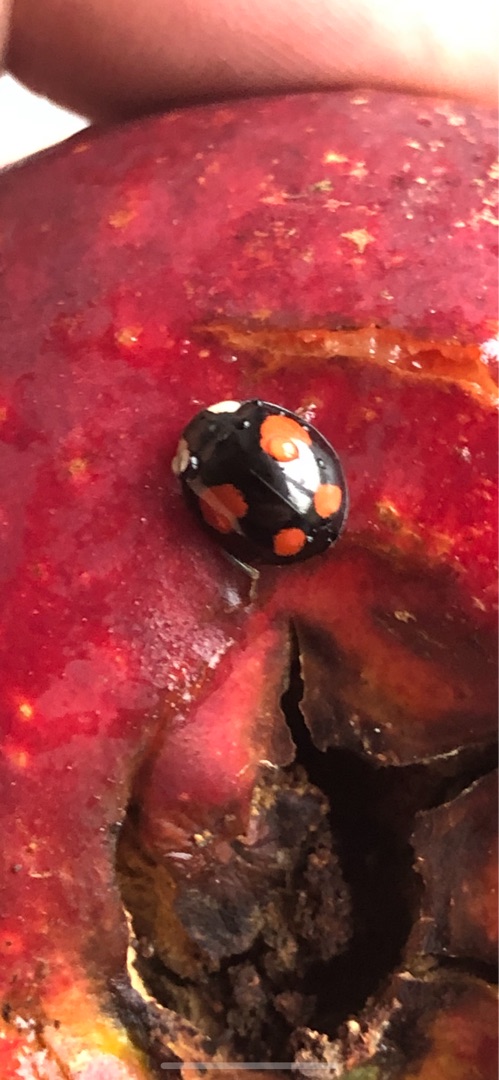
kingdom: Animalia
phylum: Arthropoda
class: Insecta
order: Coleoptera
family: Coccinellidae
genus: Harmonia
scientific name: Harmonia axyridis
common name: Harlekinmariehøne
